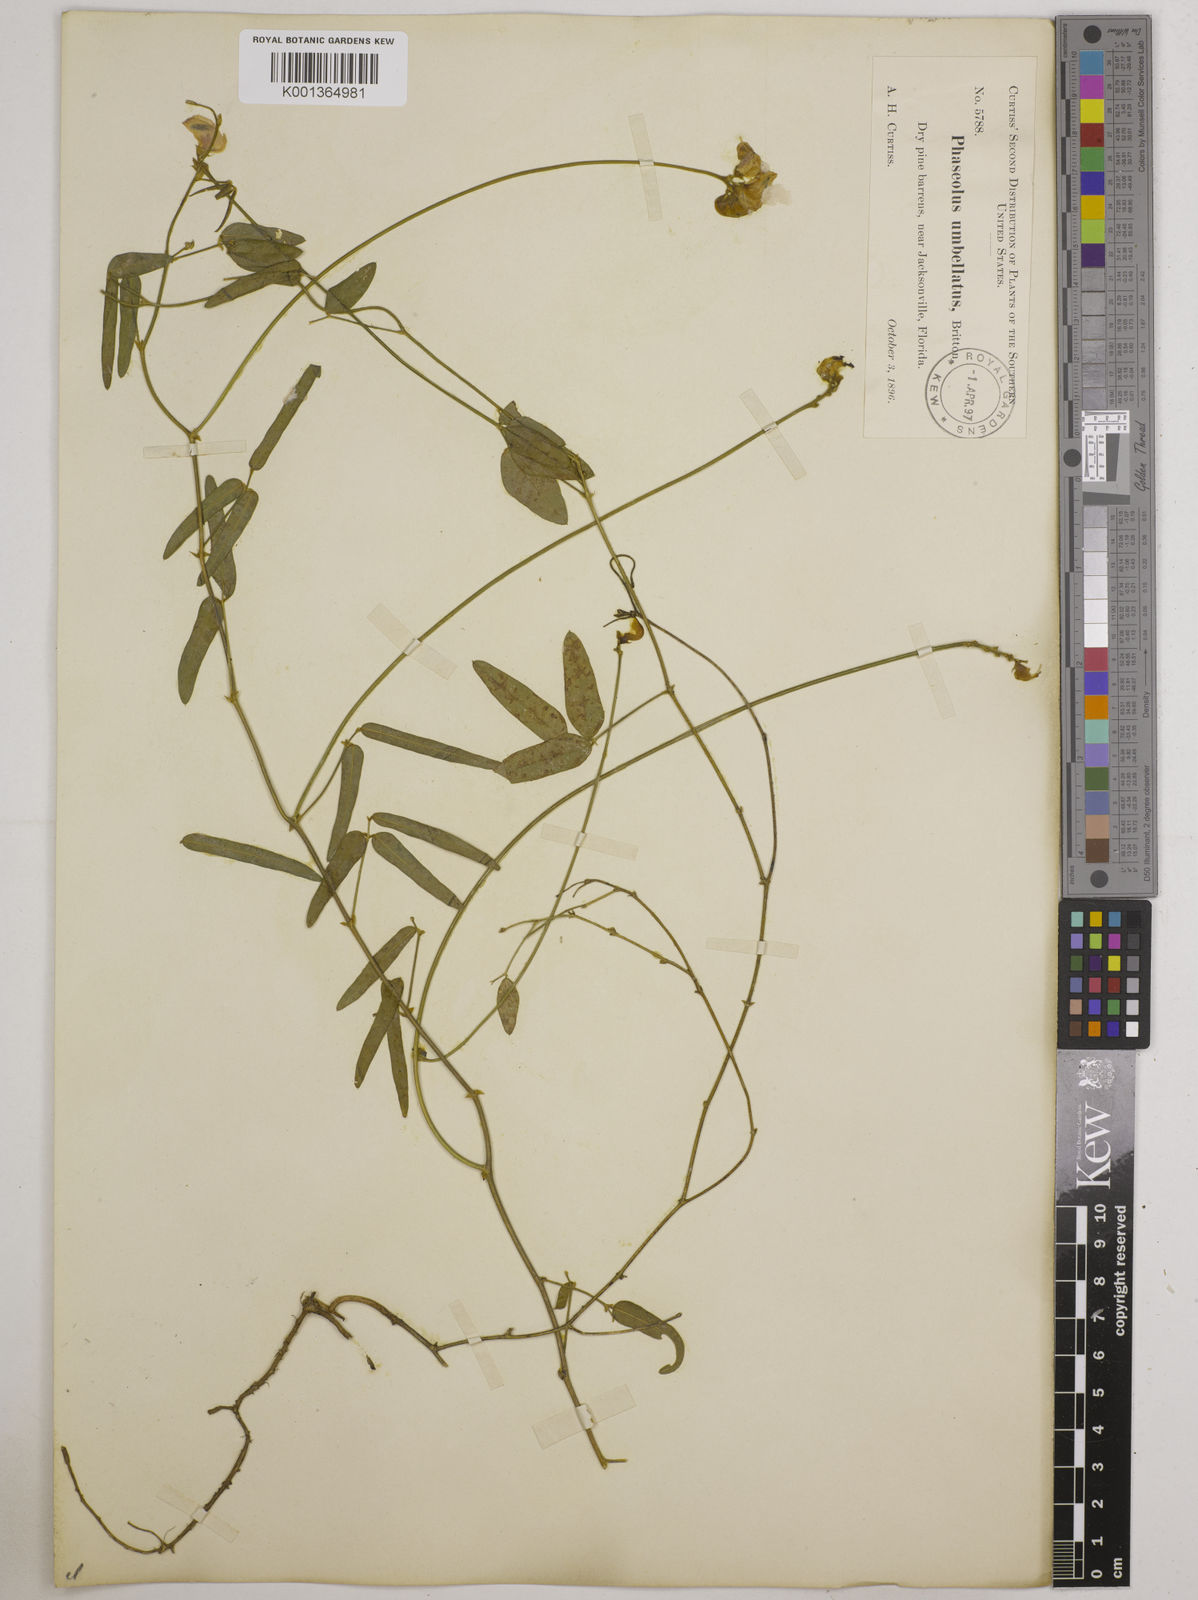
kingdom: Plantae
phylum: Tracheophyta
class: Magnoliopsida
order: Fabales
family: Fabaceae
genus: Strophostyles
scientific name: Strophostyles umbellata
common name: Perennial wild bean
